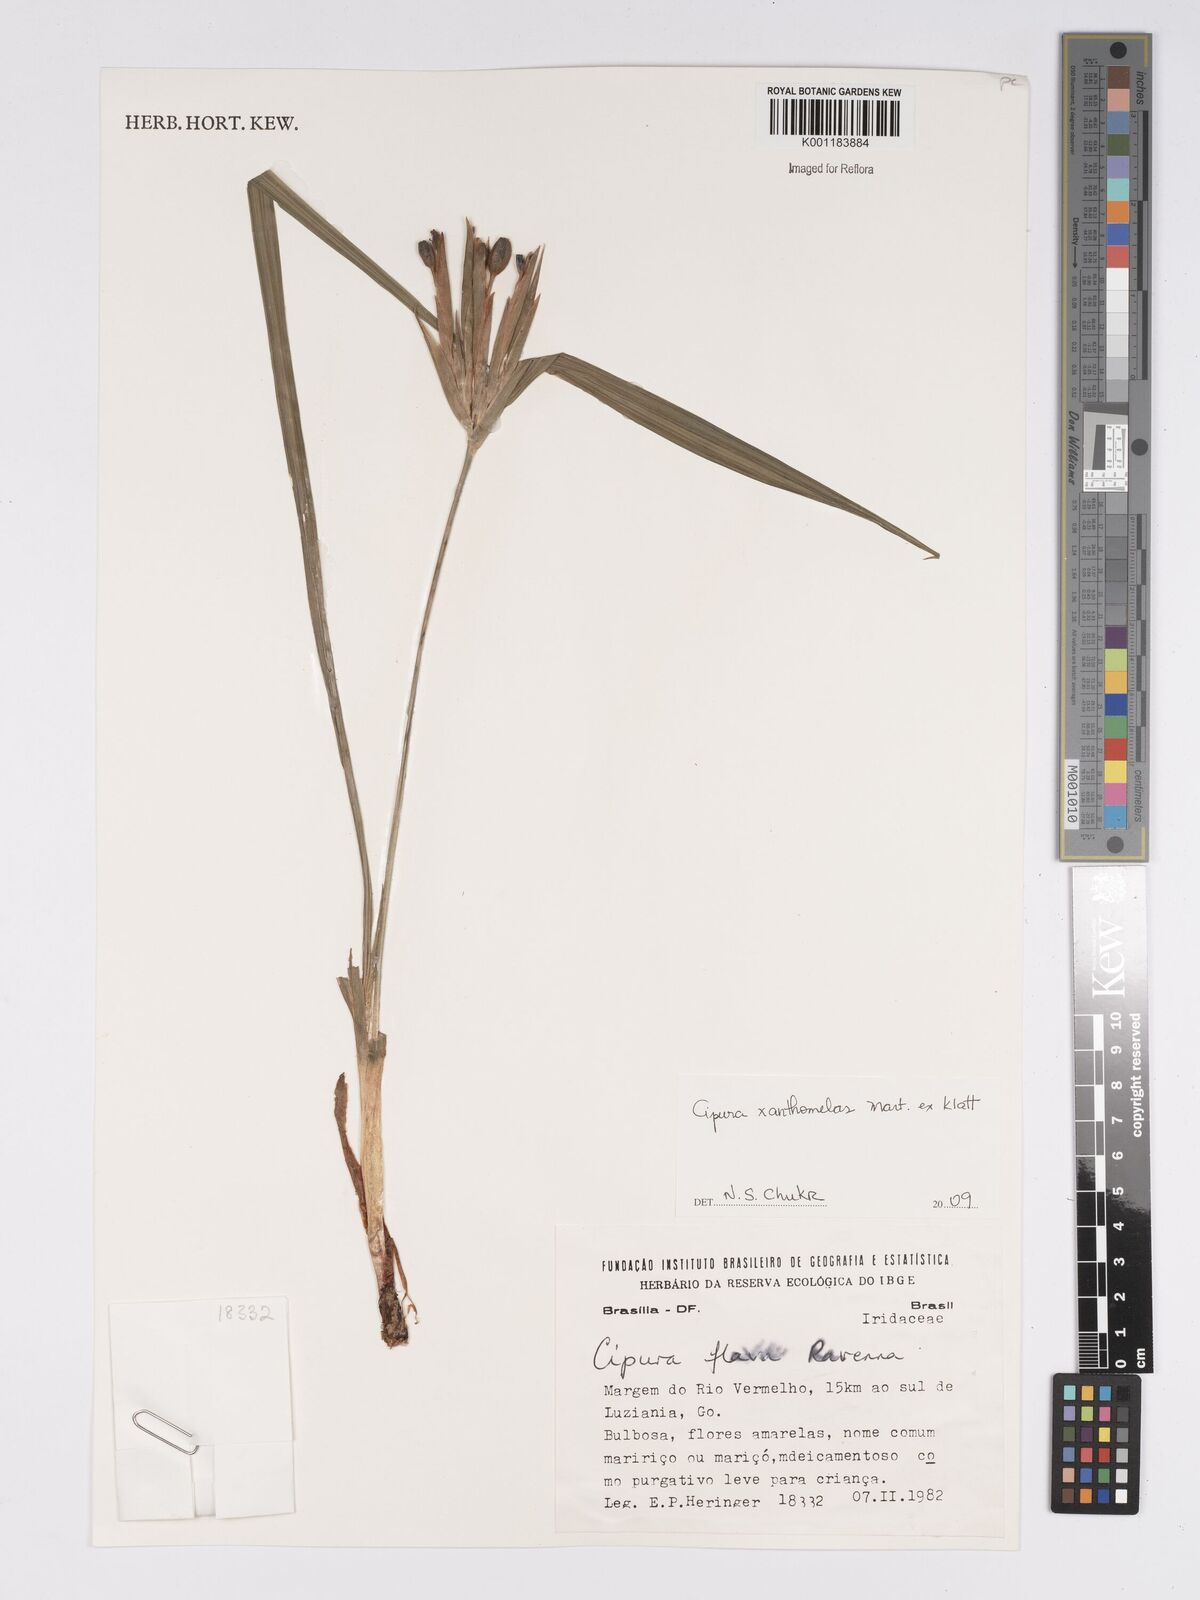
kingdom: Plantae
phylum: Tracheophyta
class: Liliopsida
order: Asparagales
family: Iridaceae
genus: Cipura
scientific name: Cipura xanthomelas
